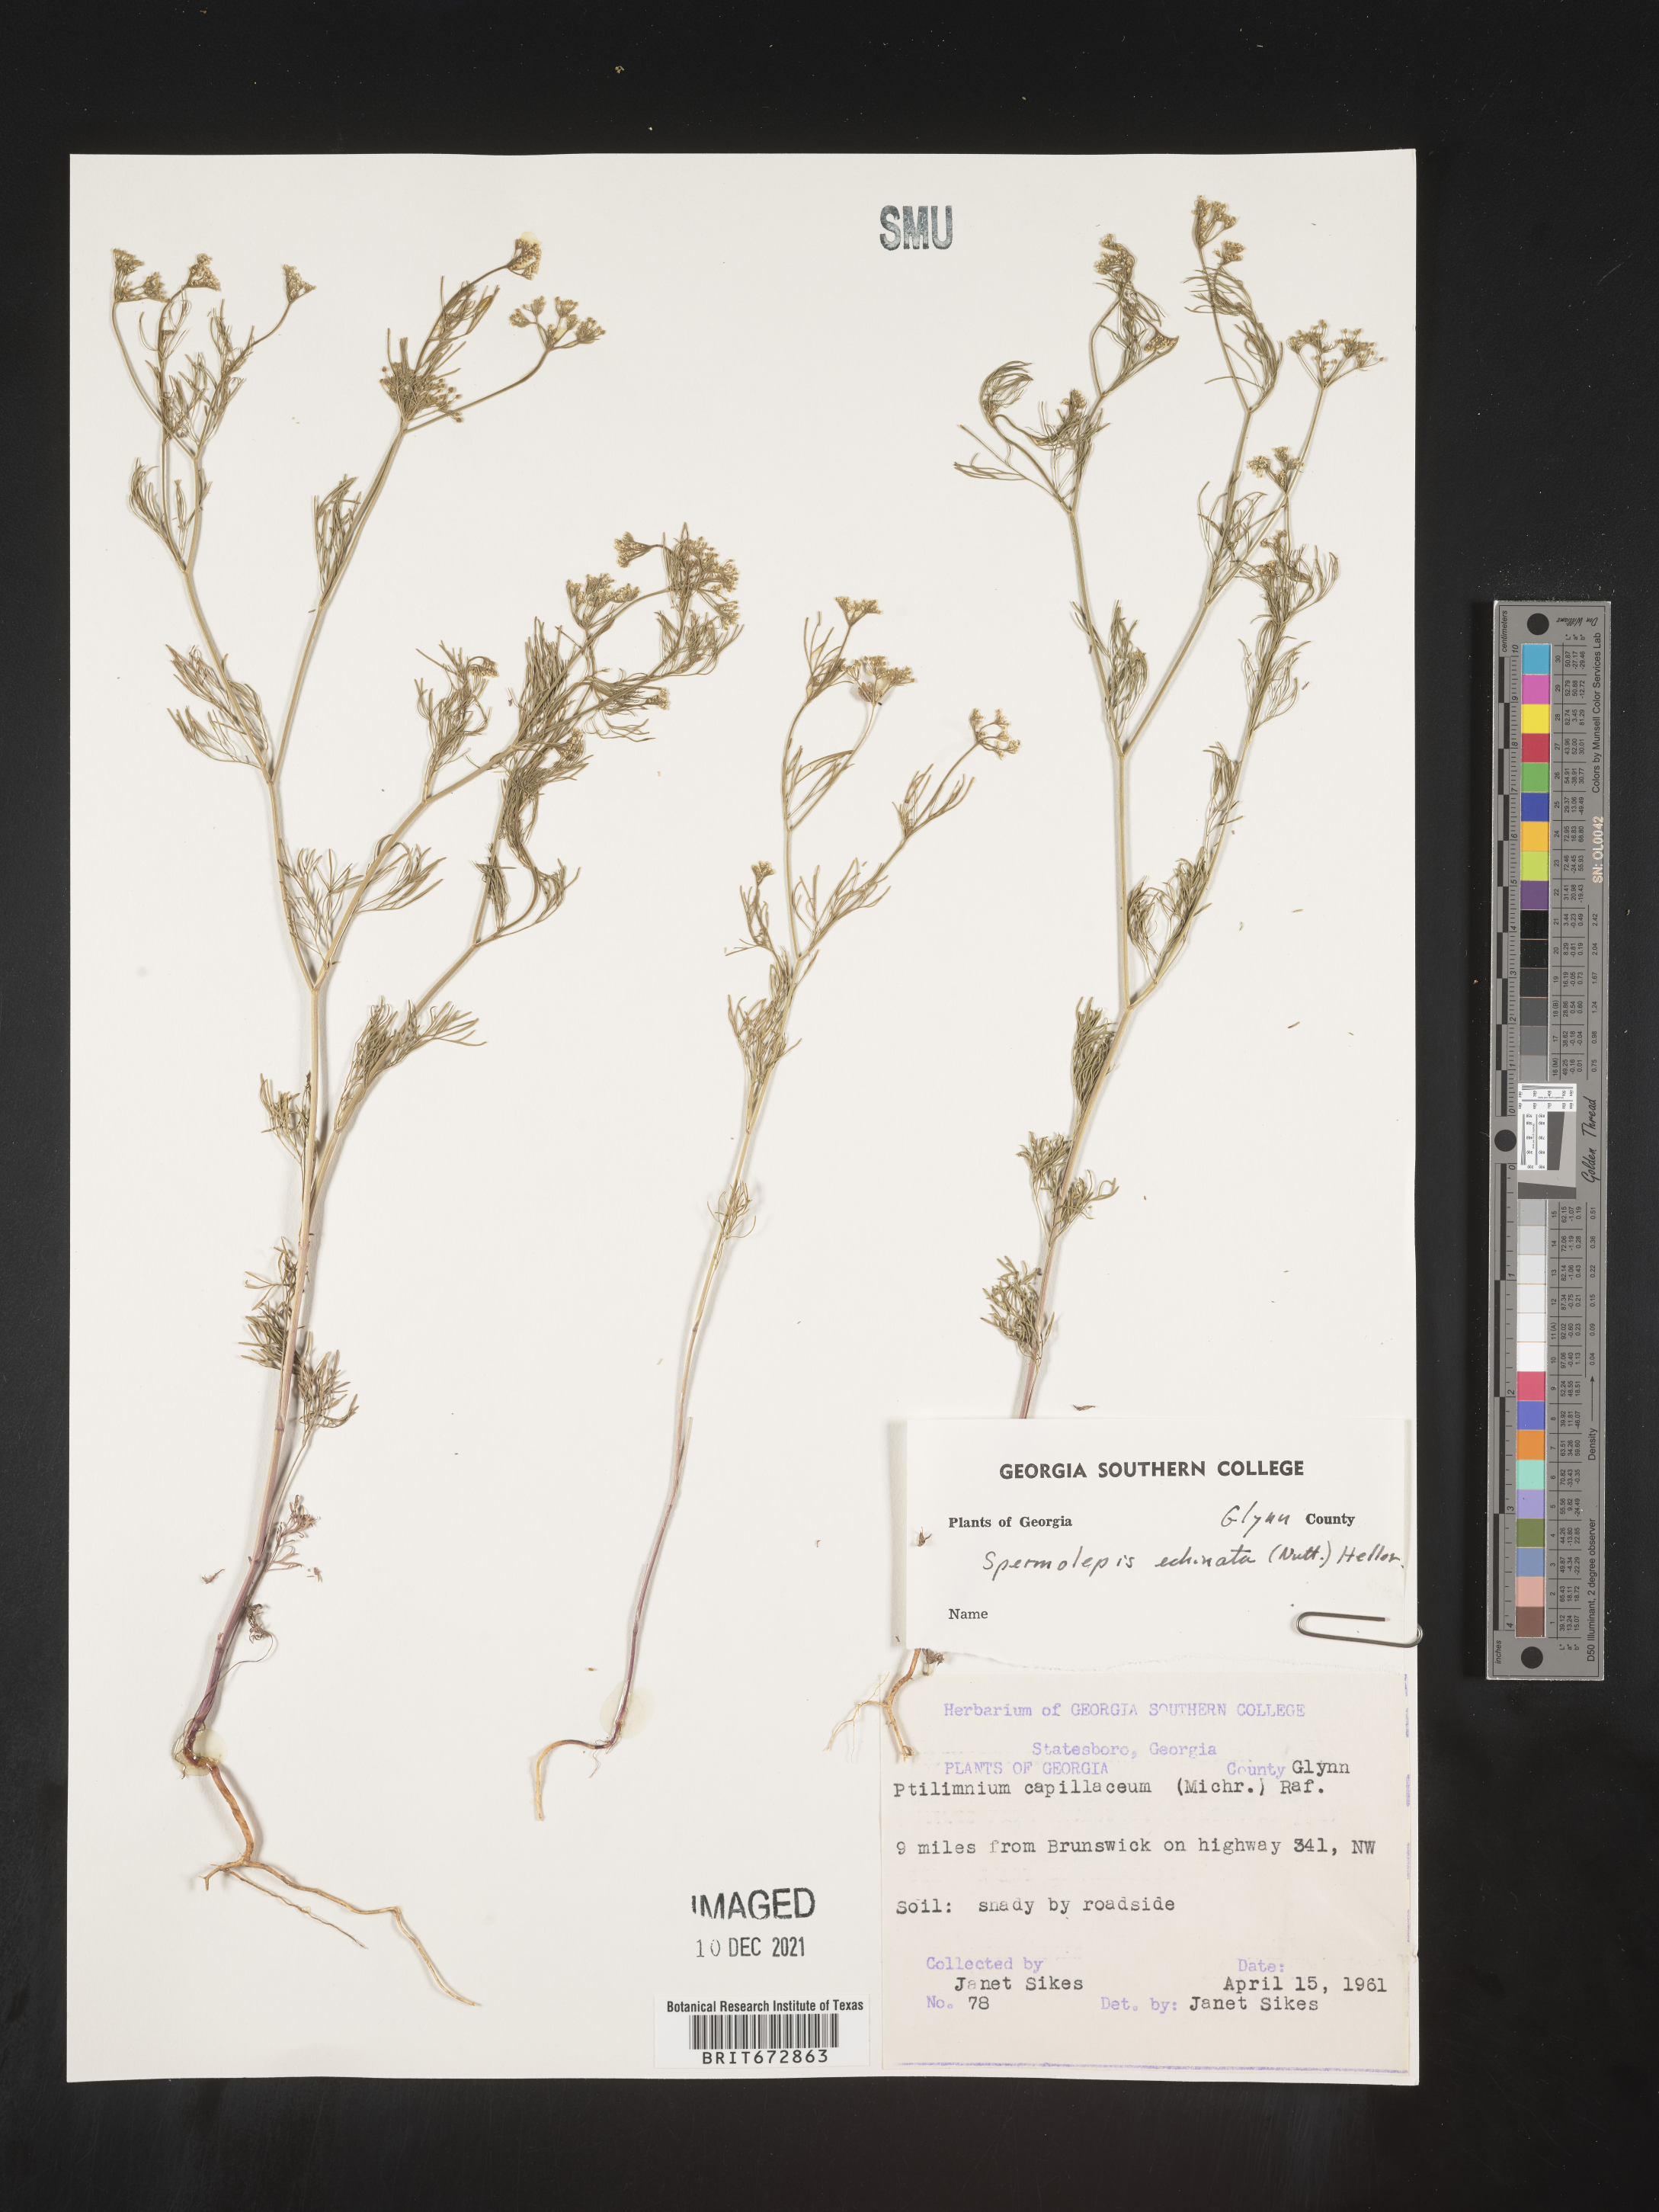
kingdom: Plantae
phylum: Tracheophyta
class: Magnoliopsida
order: Apiales
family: Apiaceae
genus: Spermolepis
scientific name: Spermolepis echinata
